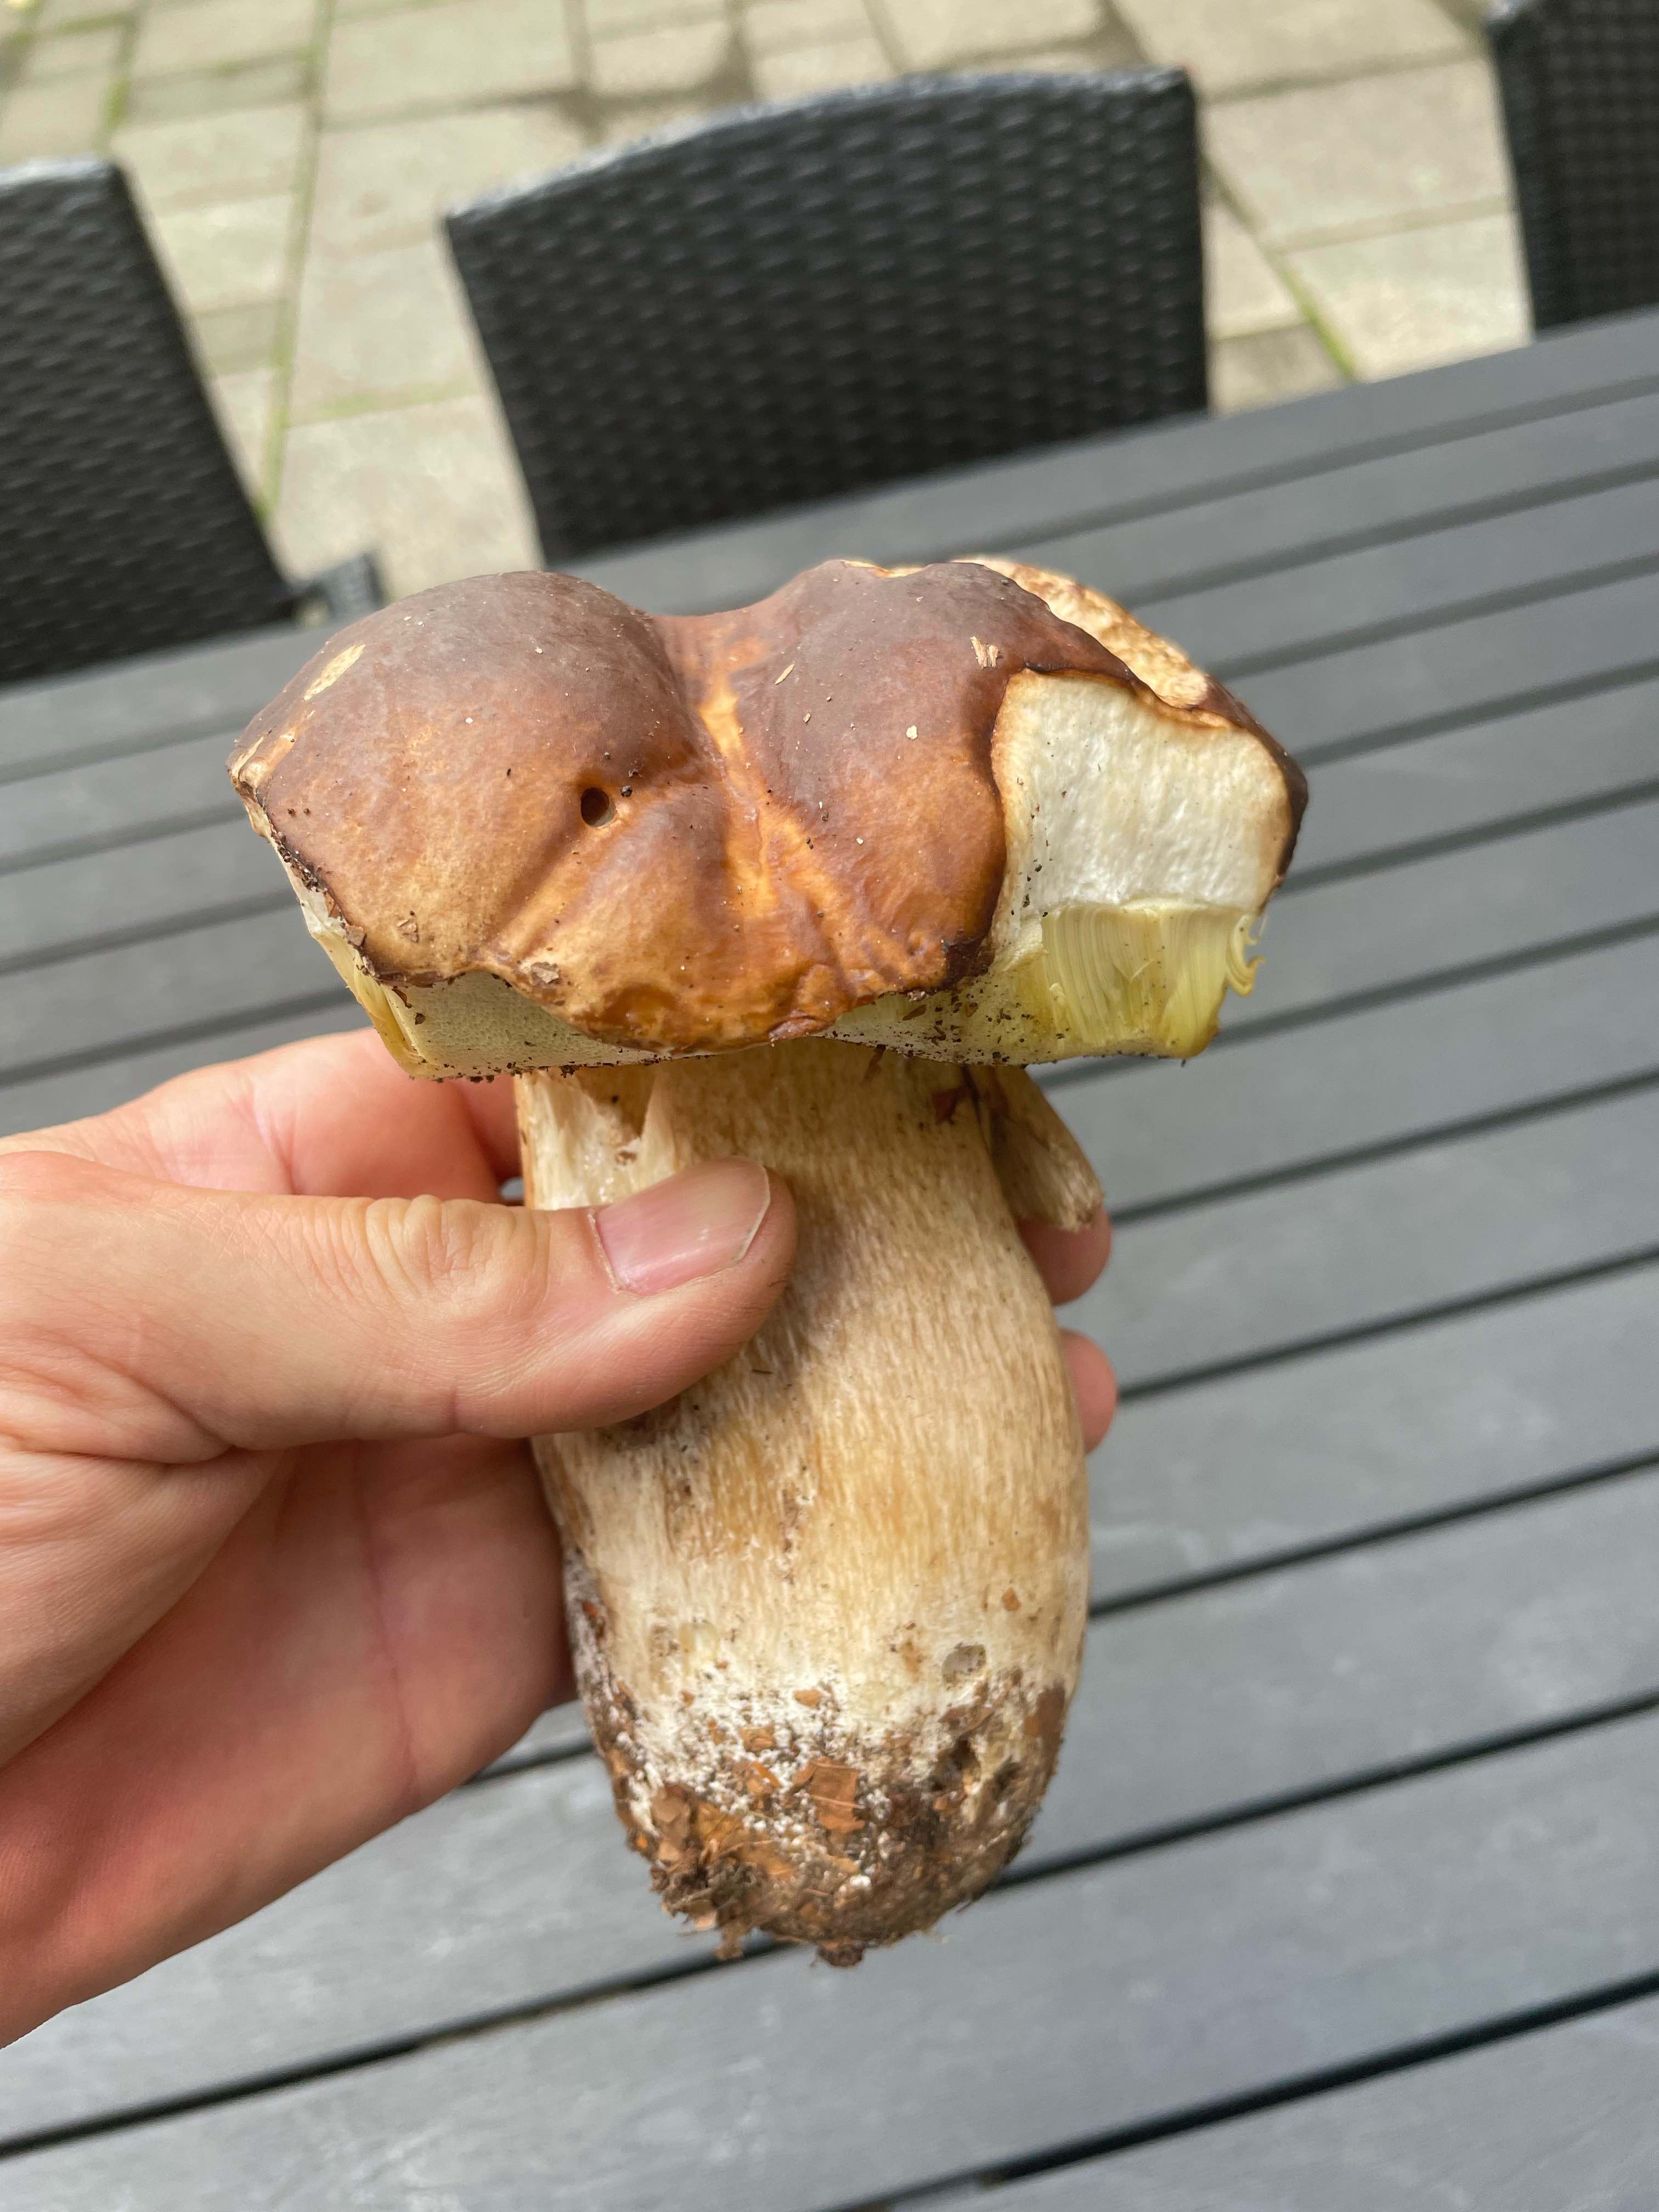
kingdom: Fungi
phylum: Basidiomycota
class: Agaricomycetes
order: Boletales
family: Boletaceae
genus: Boletus
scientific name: Boletus edulis
